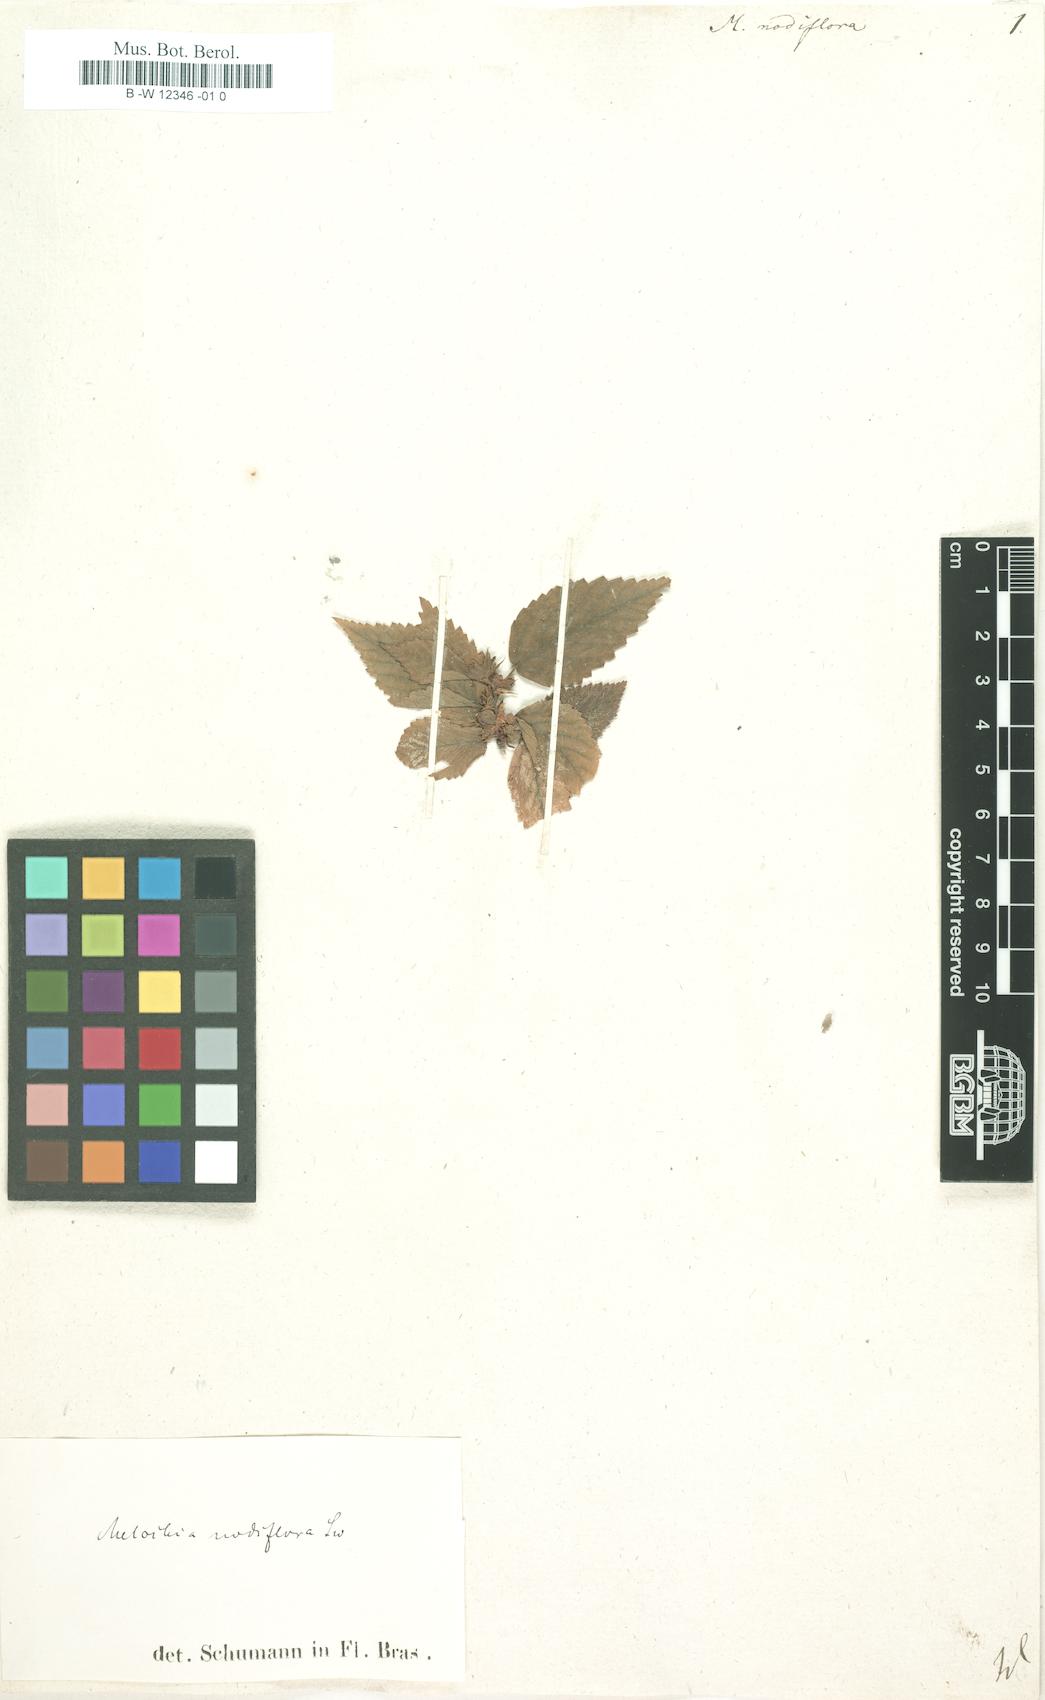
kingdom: Plantae
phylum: Tracheophyta
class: Magnoliopsida
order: Malvales
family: Malvaceae
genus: Melochia
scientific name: Melochia nodiflora
